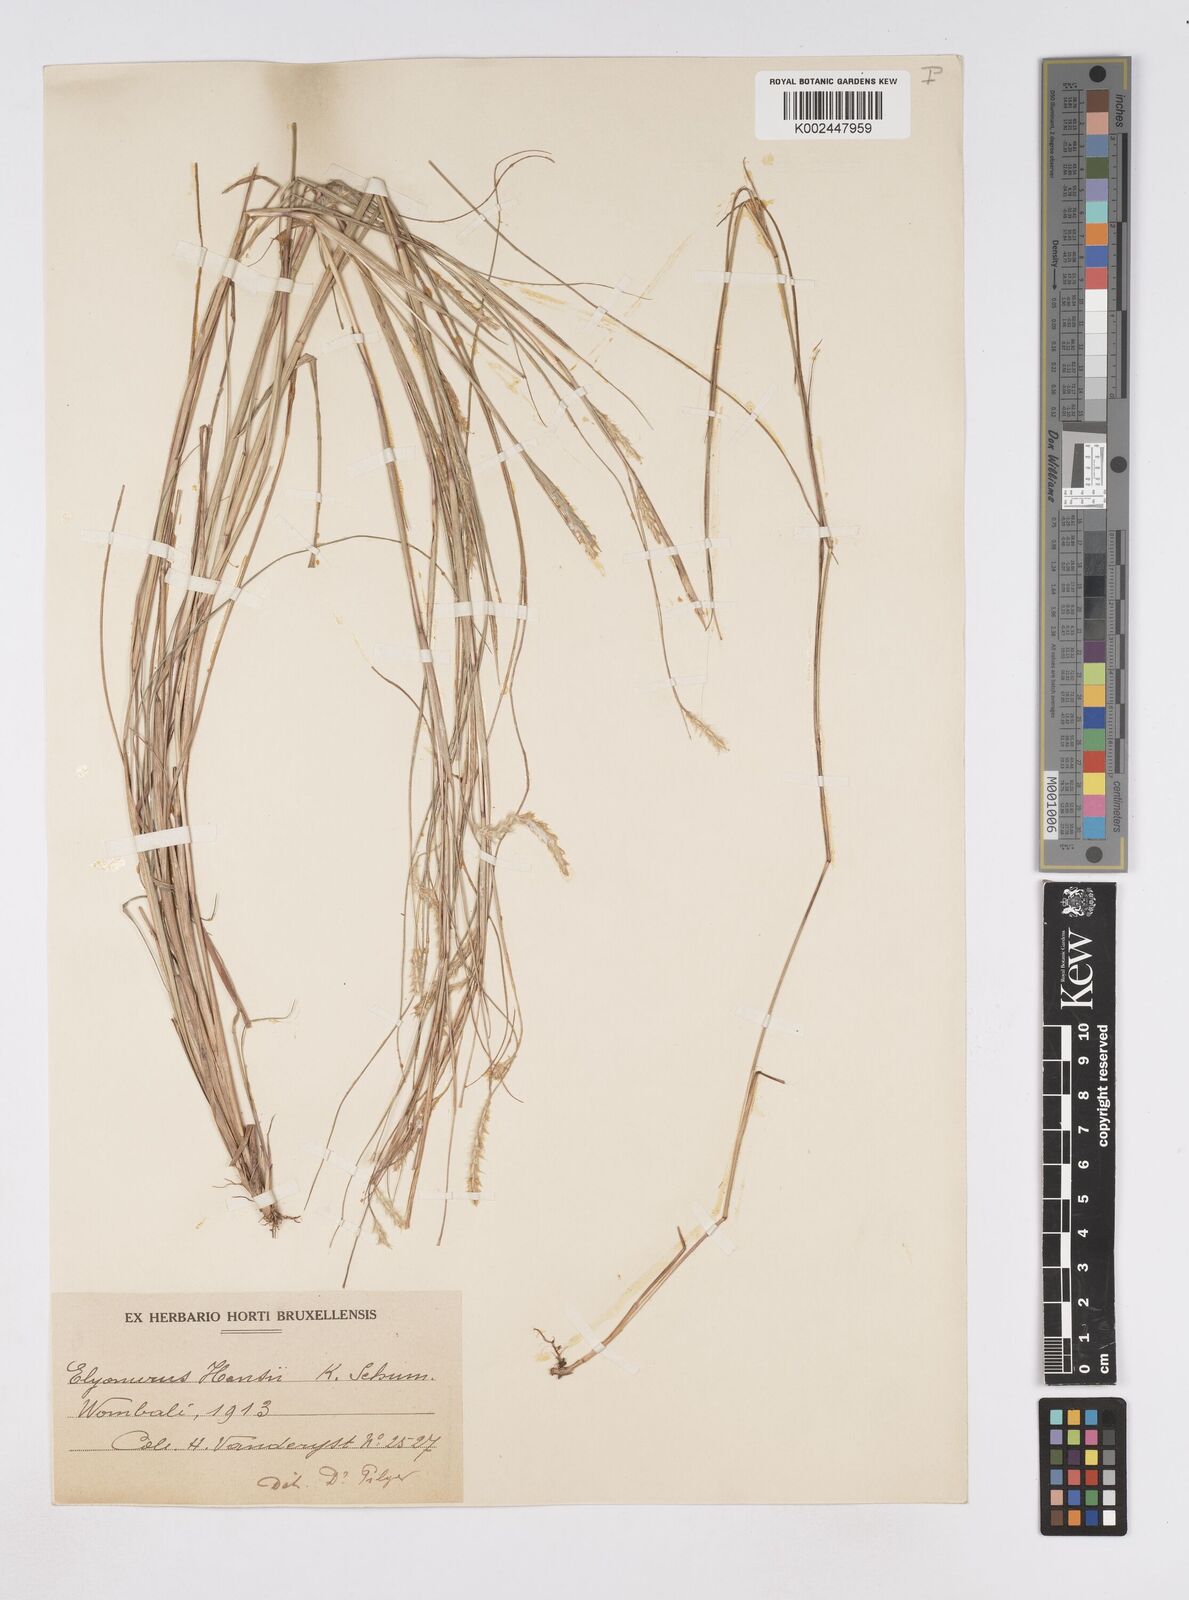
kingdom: Plantae
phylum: Tracheophyta
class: Liliopsida
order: Poales
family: Poaceae
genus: Elionurus
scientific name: Elionurus hensii
